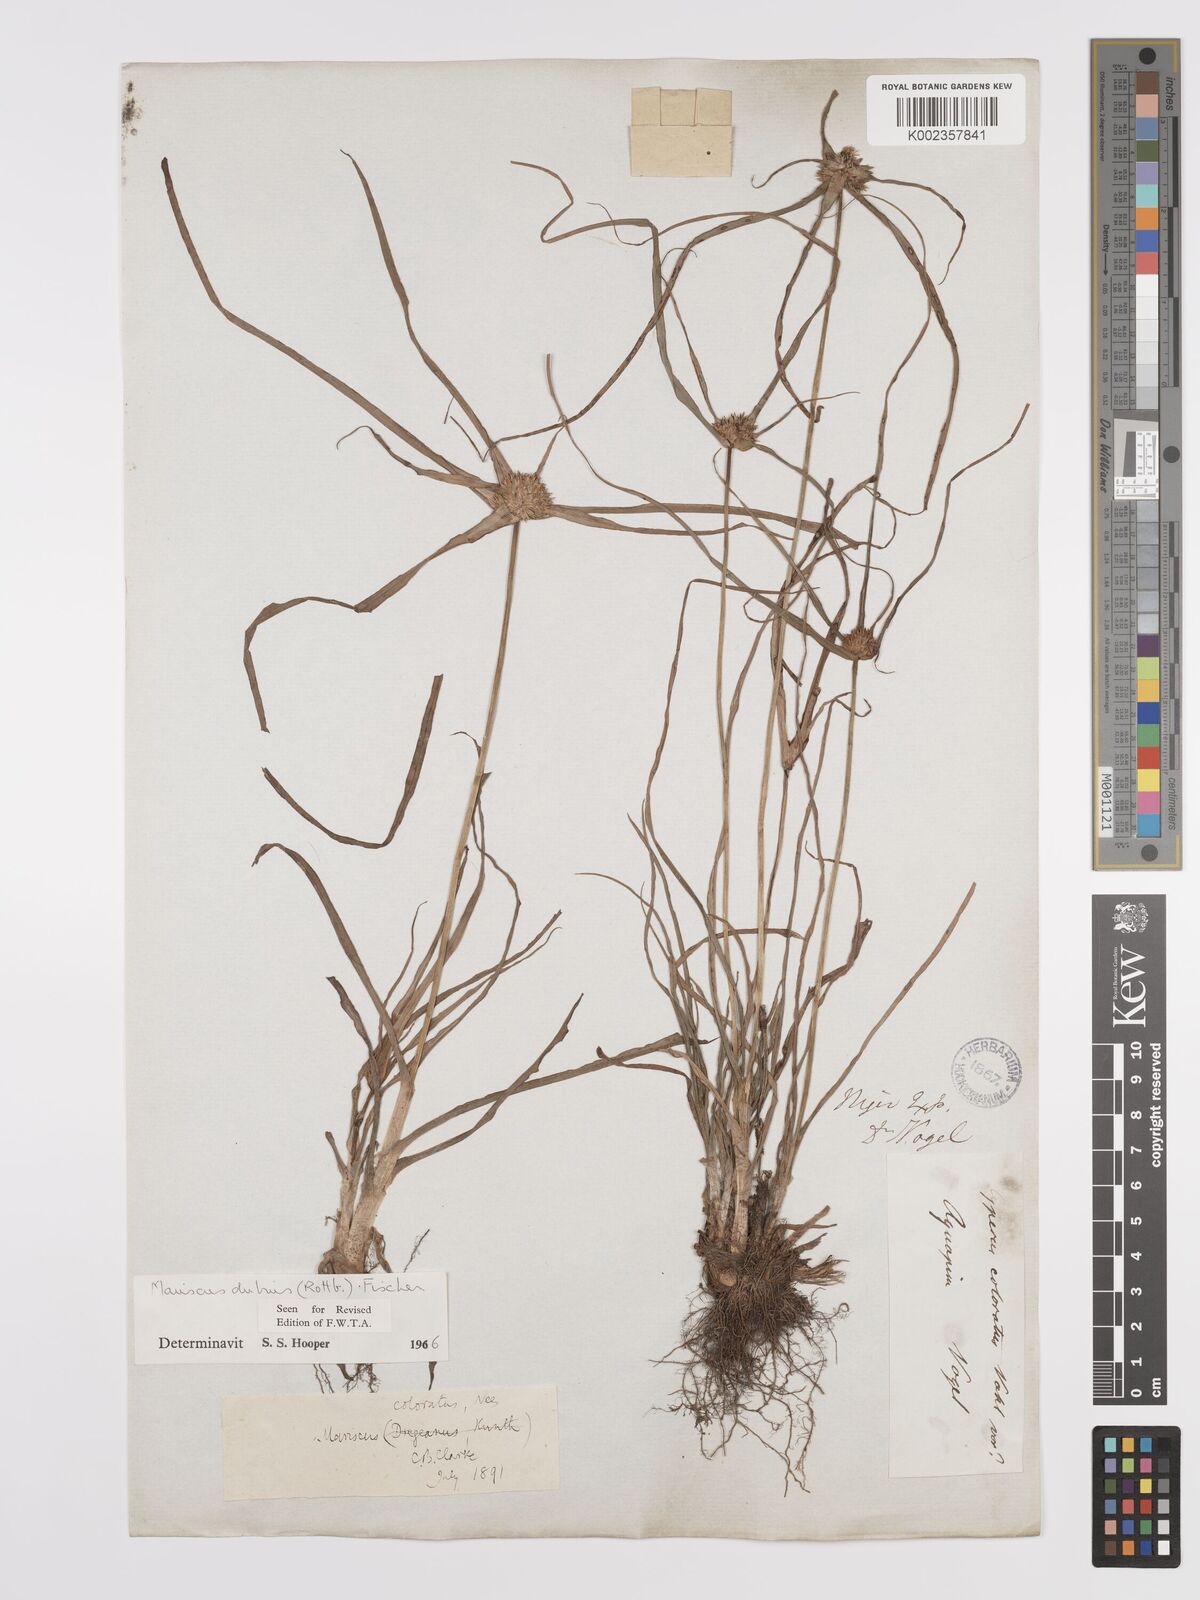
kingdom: Plantae
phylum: Tracheophyta
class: Liliopsida
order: Poales
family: Cyperaceae
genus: Cyperus
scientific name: Cyperus dubius
